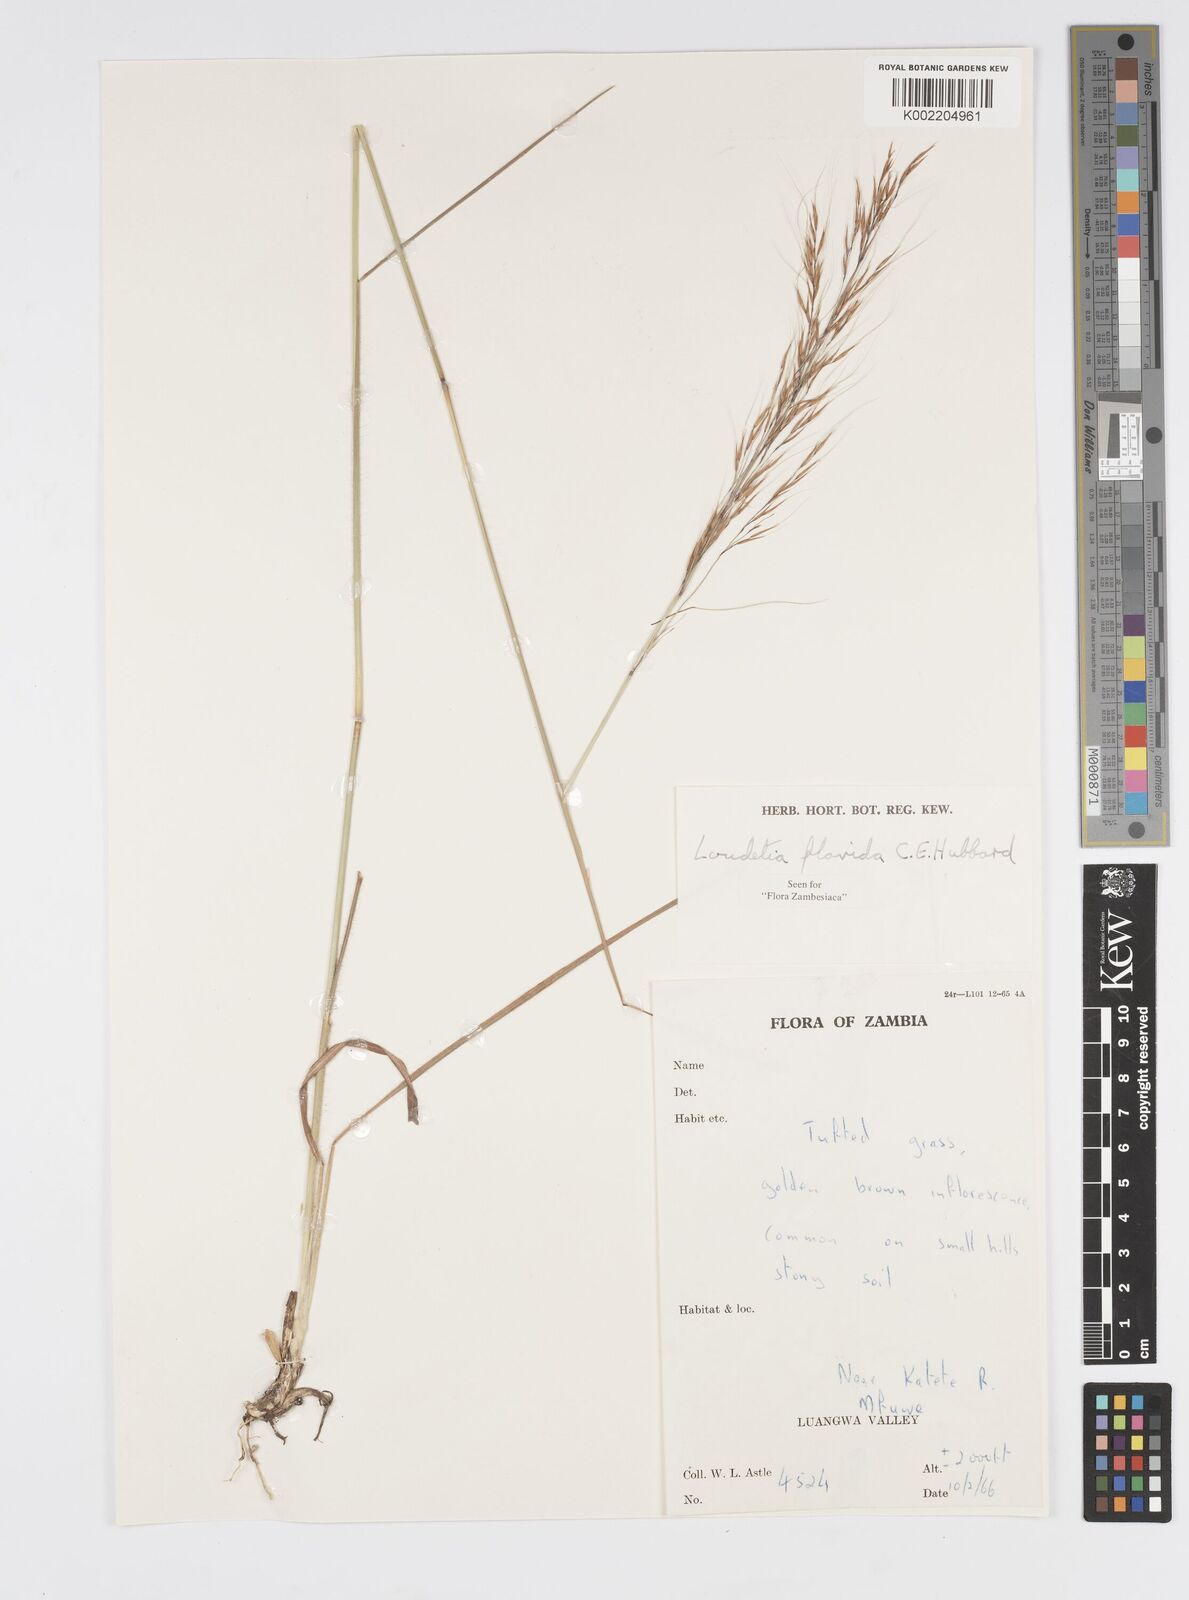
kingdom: Plantae
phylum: Tracheophyta
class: Liliopsida
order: Poales
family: Poaceae
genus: Loudetia
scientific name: Loudetia flavida
